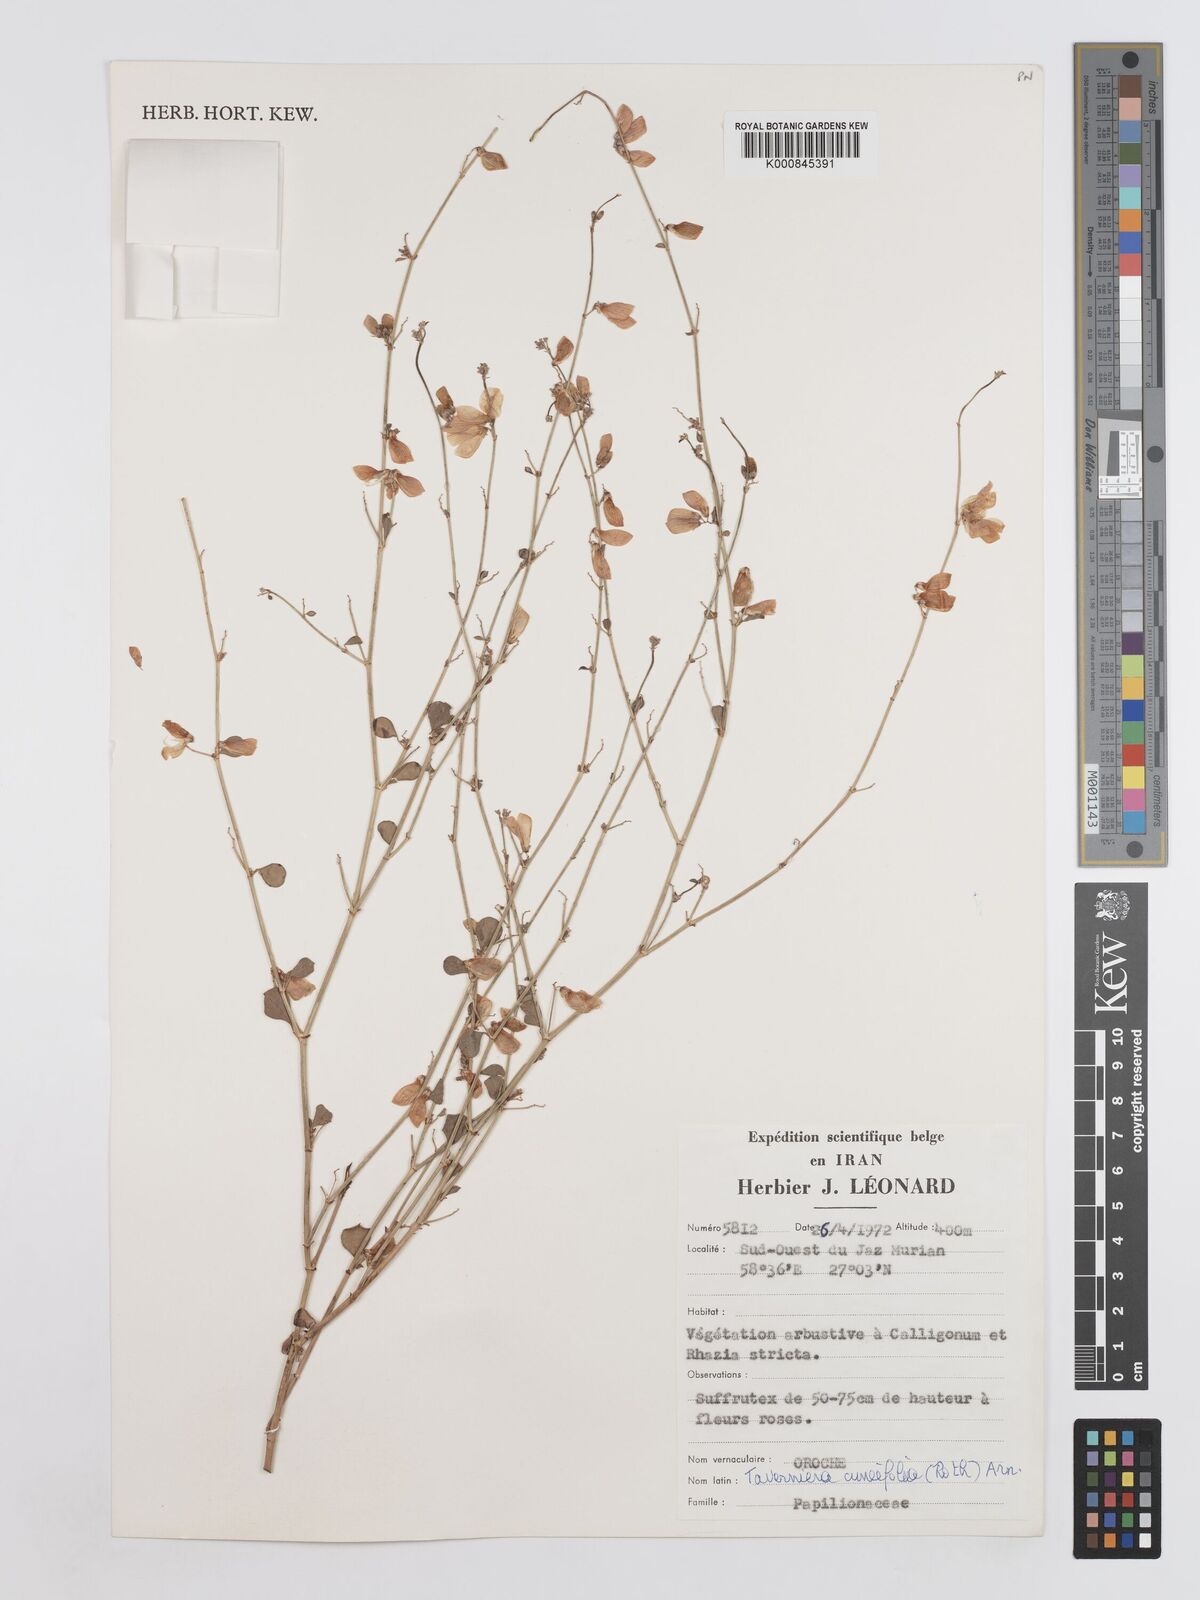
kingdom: Plantae
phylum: Tracheophyta
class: Magnoliopsida
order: Fabales
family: Fabaceae
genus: Taverniera
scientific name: Taverniera
